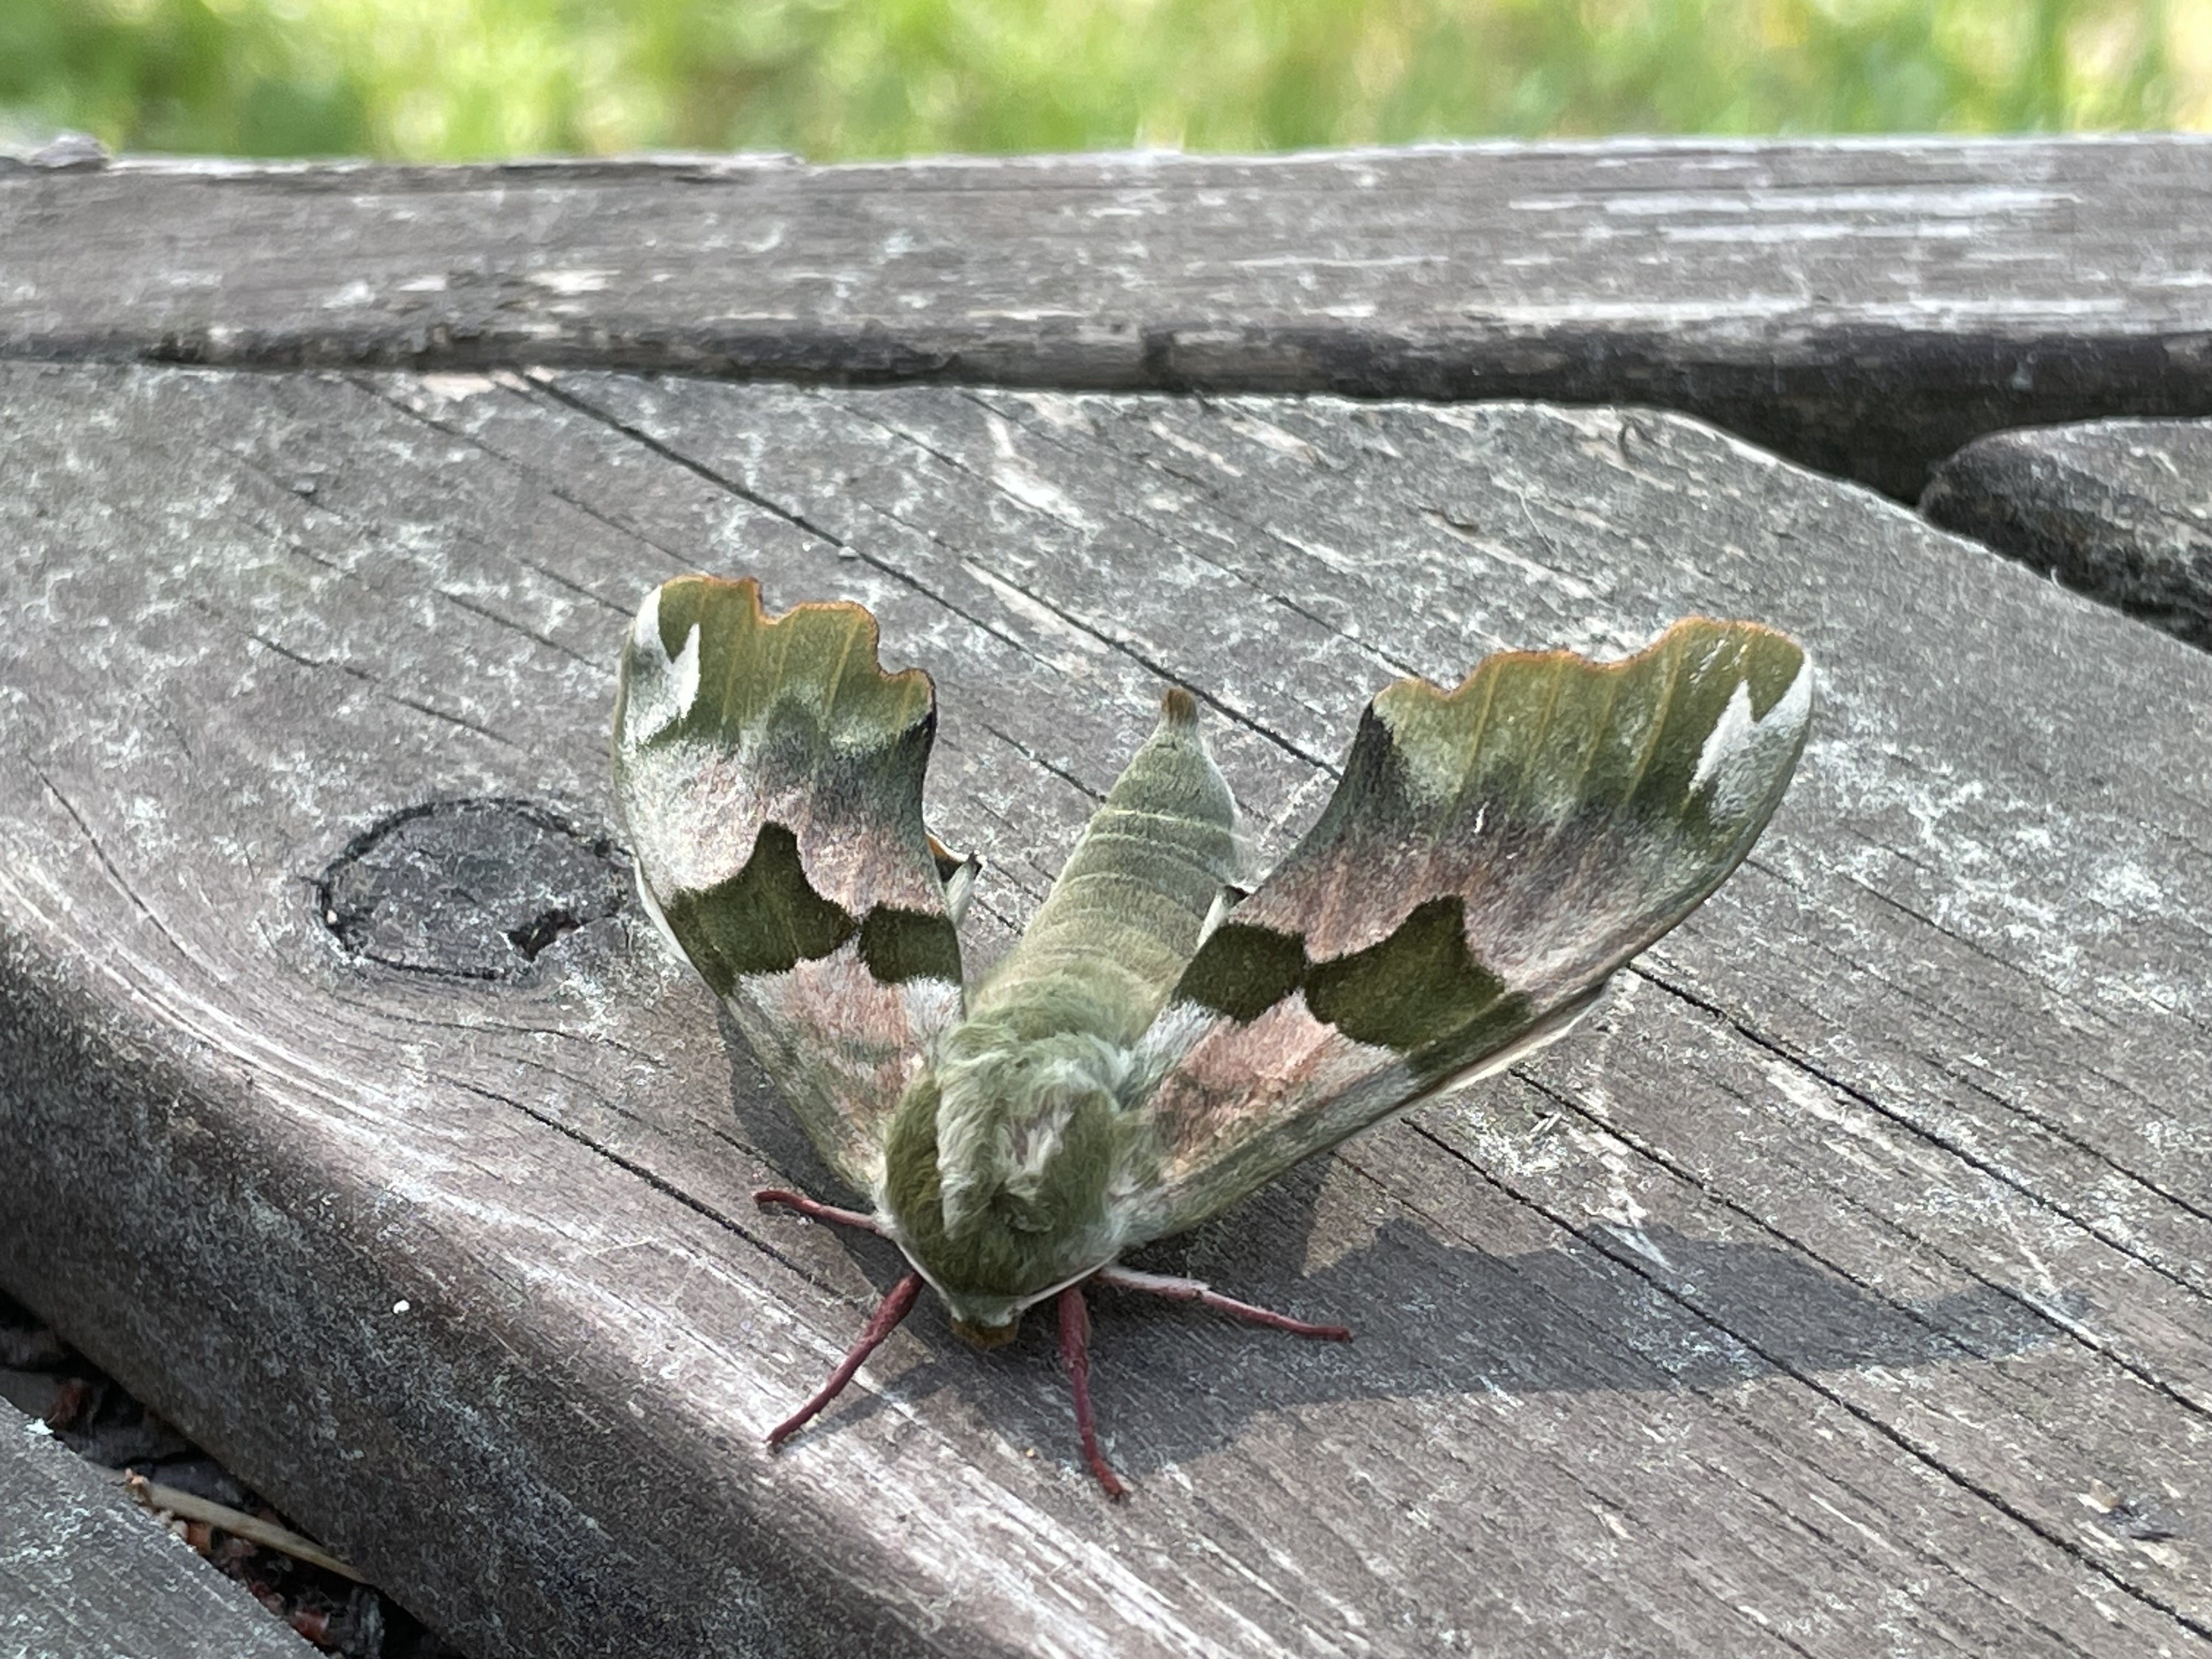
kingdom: Animalia
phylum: Arthropoda
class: Insecta
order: Lepidoptera
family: Sphingidae
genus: Mimas
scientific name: Mimas tiliae
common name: Lime hawk-moth
